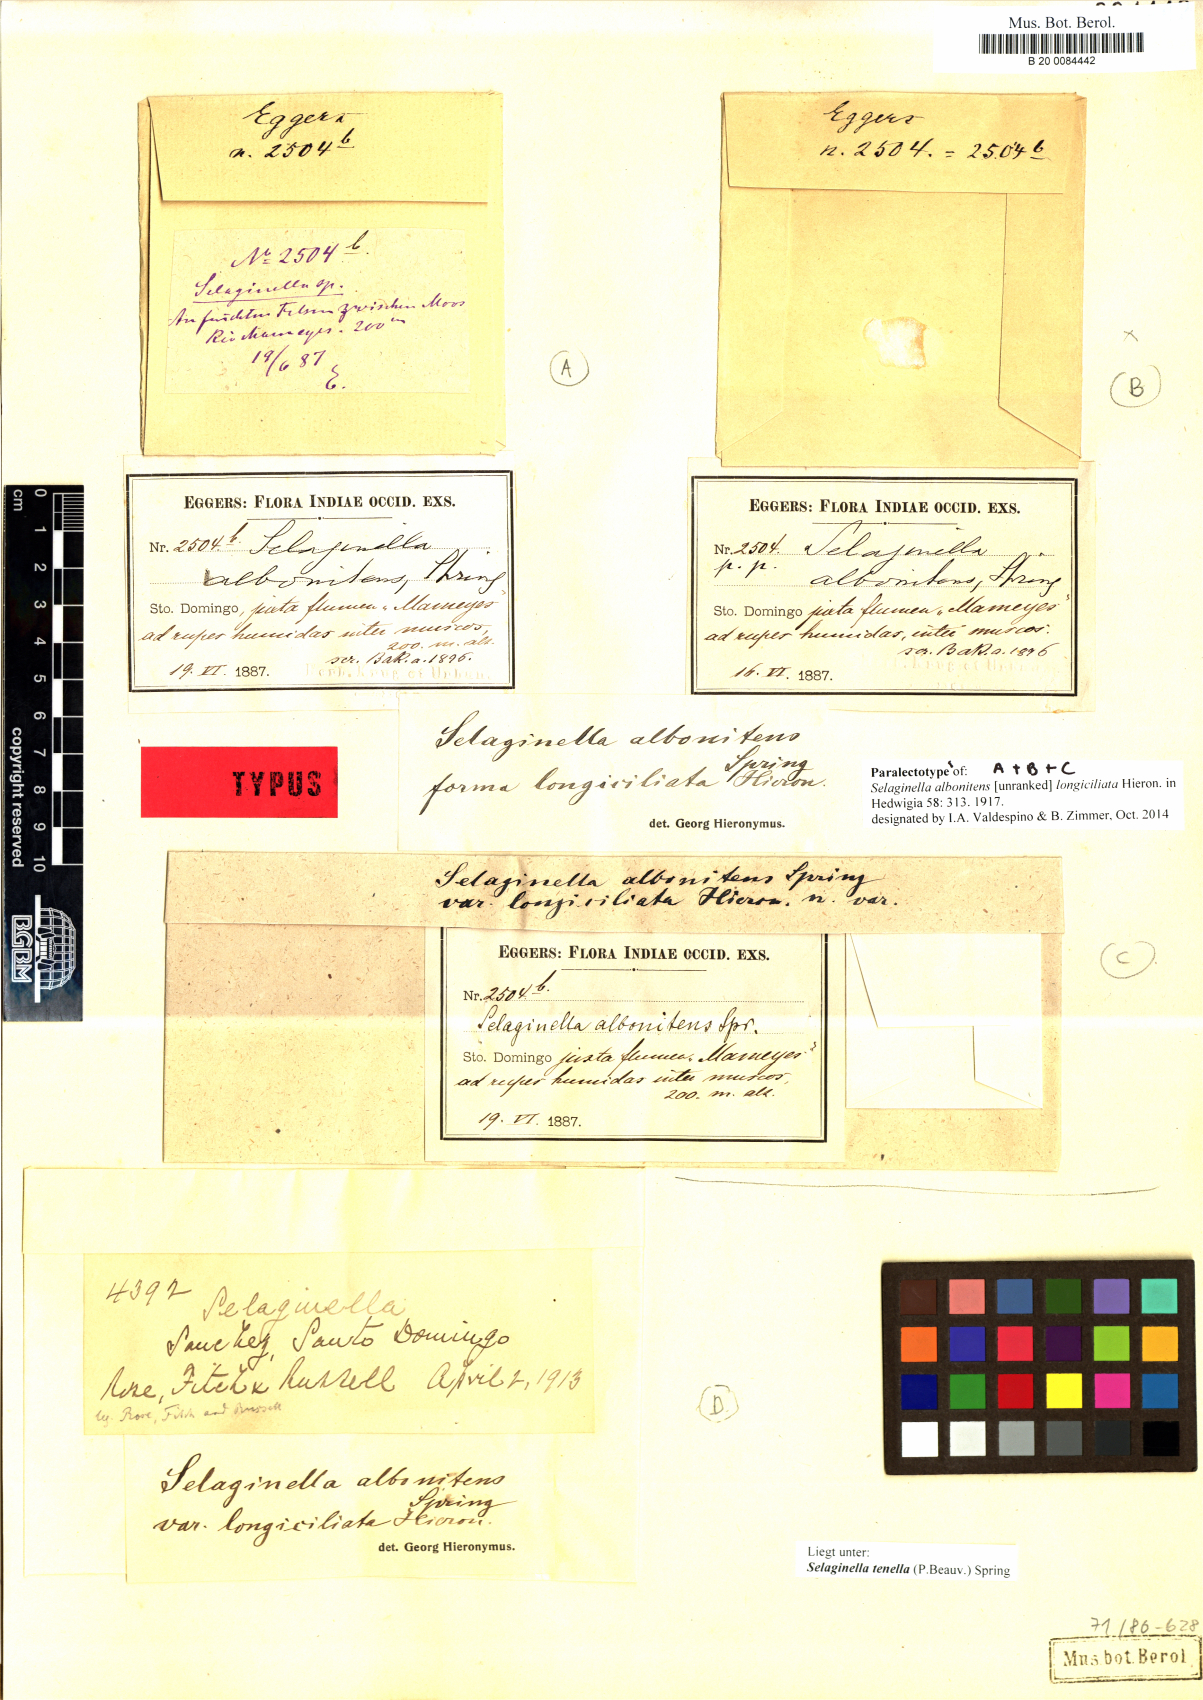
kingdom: Plantae
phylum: Tracheophyta
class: Lycopodiopsida
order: Selaginellales
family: Selaginellaceae
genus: Selaginella
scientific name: Selaginella tenella
